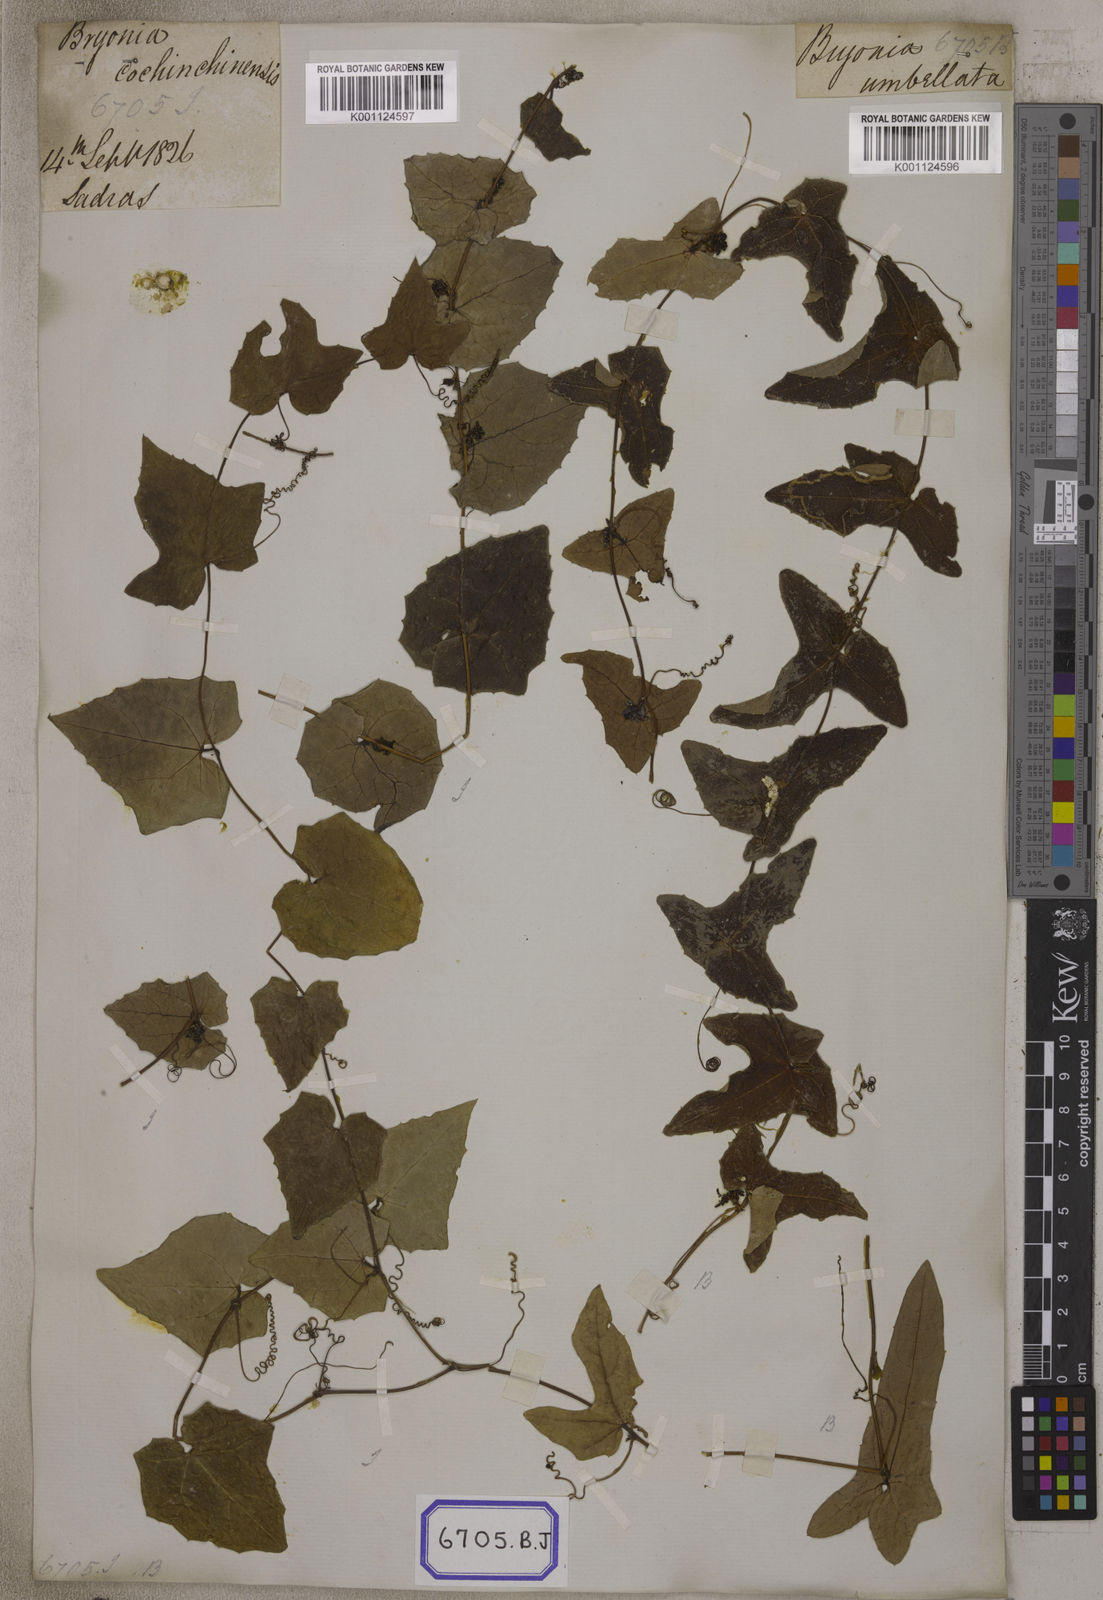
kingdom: Plantae
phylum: Tracheophyta
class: Magnoliopsida
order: Cucurbitales
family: Cucurbitaceae
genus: Bryonia
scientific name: Bryonia
